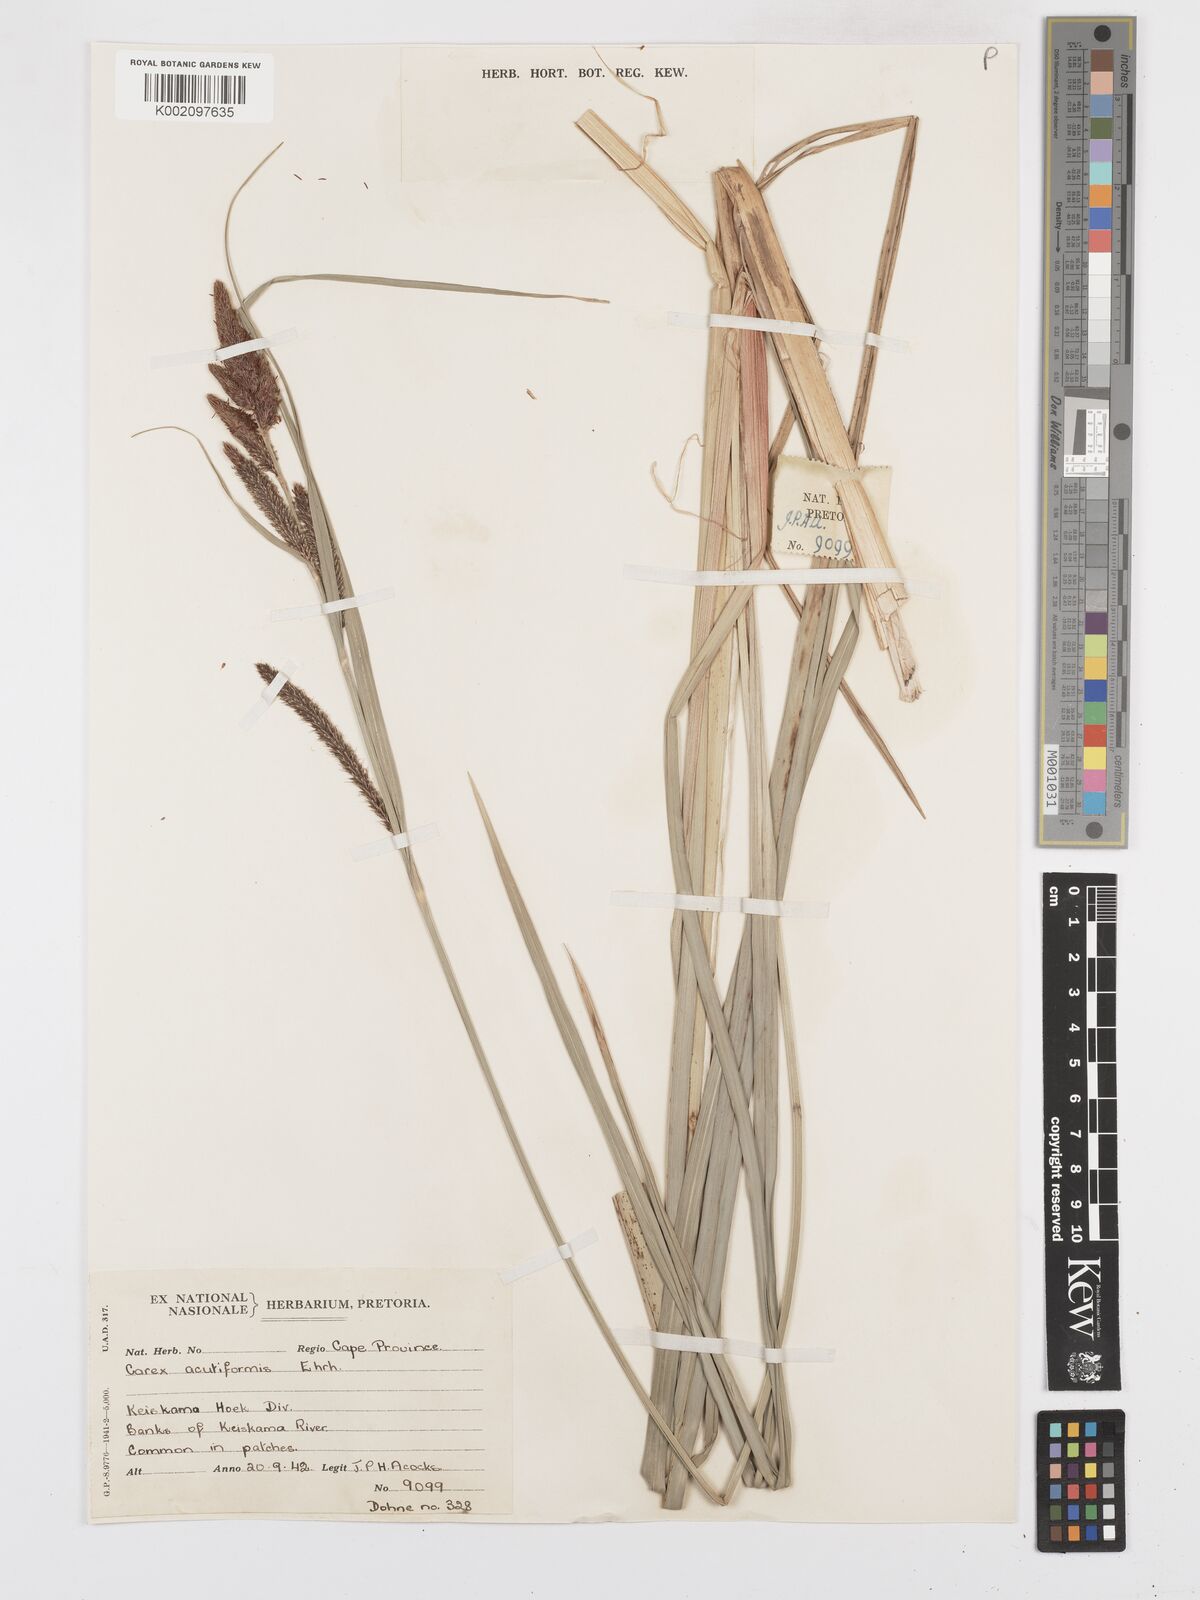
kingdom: Plantae
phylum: Tracheophyta
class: Liliopsida
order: Poales
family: Cyperaceae
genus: Carex
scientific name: Carex acutiformis
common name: Lesser pond-sedge
